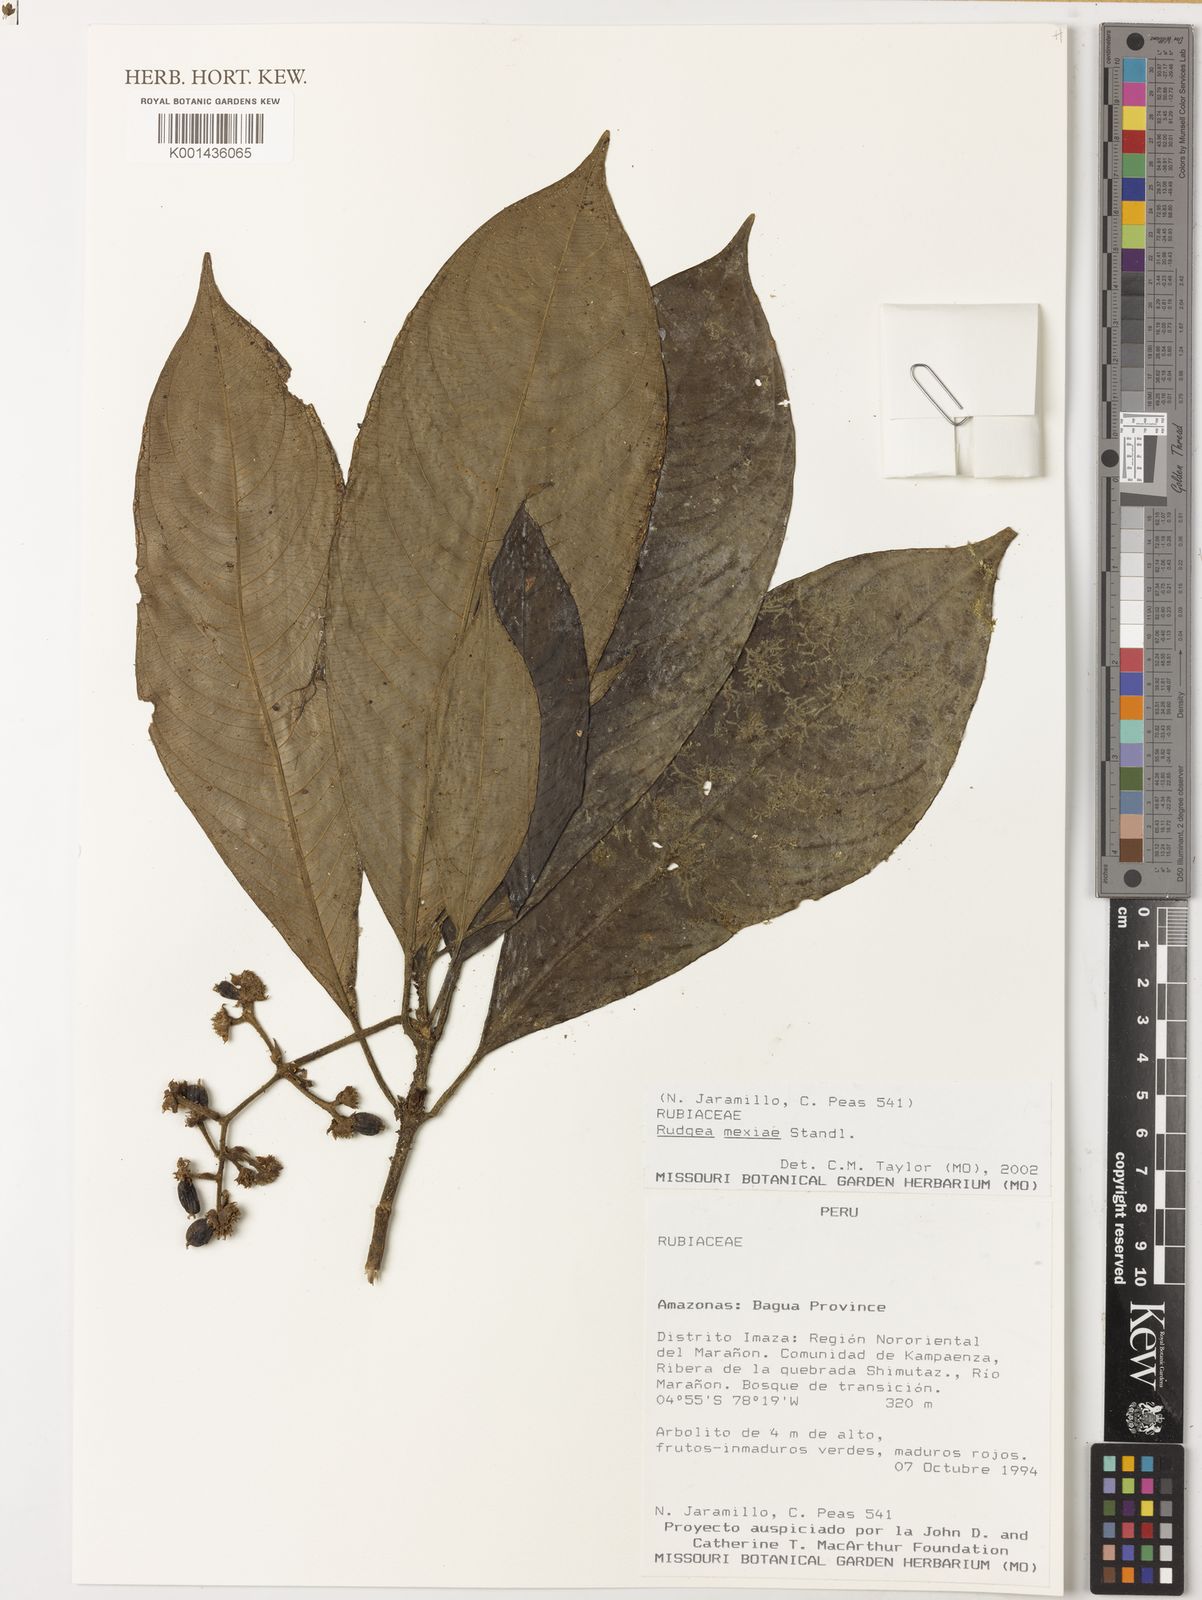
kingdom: Plantae
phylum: Tracheophyta
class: Magnoliopsida
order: Gentianales
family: Rubiaceae
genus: Palicourea
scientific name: Palicourea yneziae
